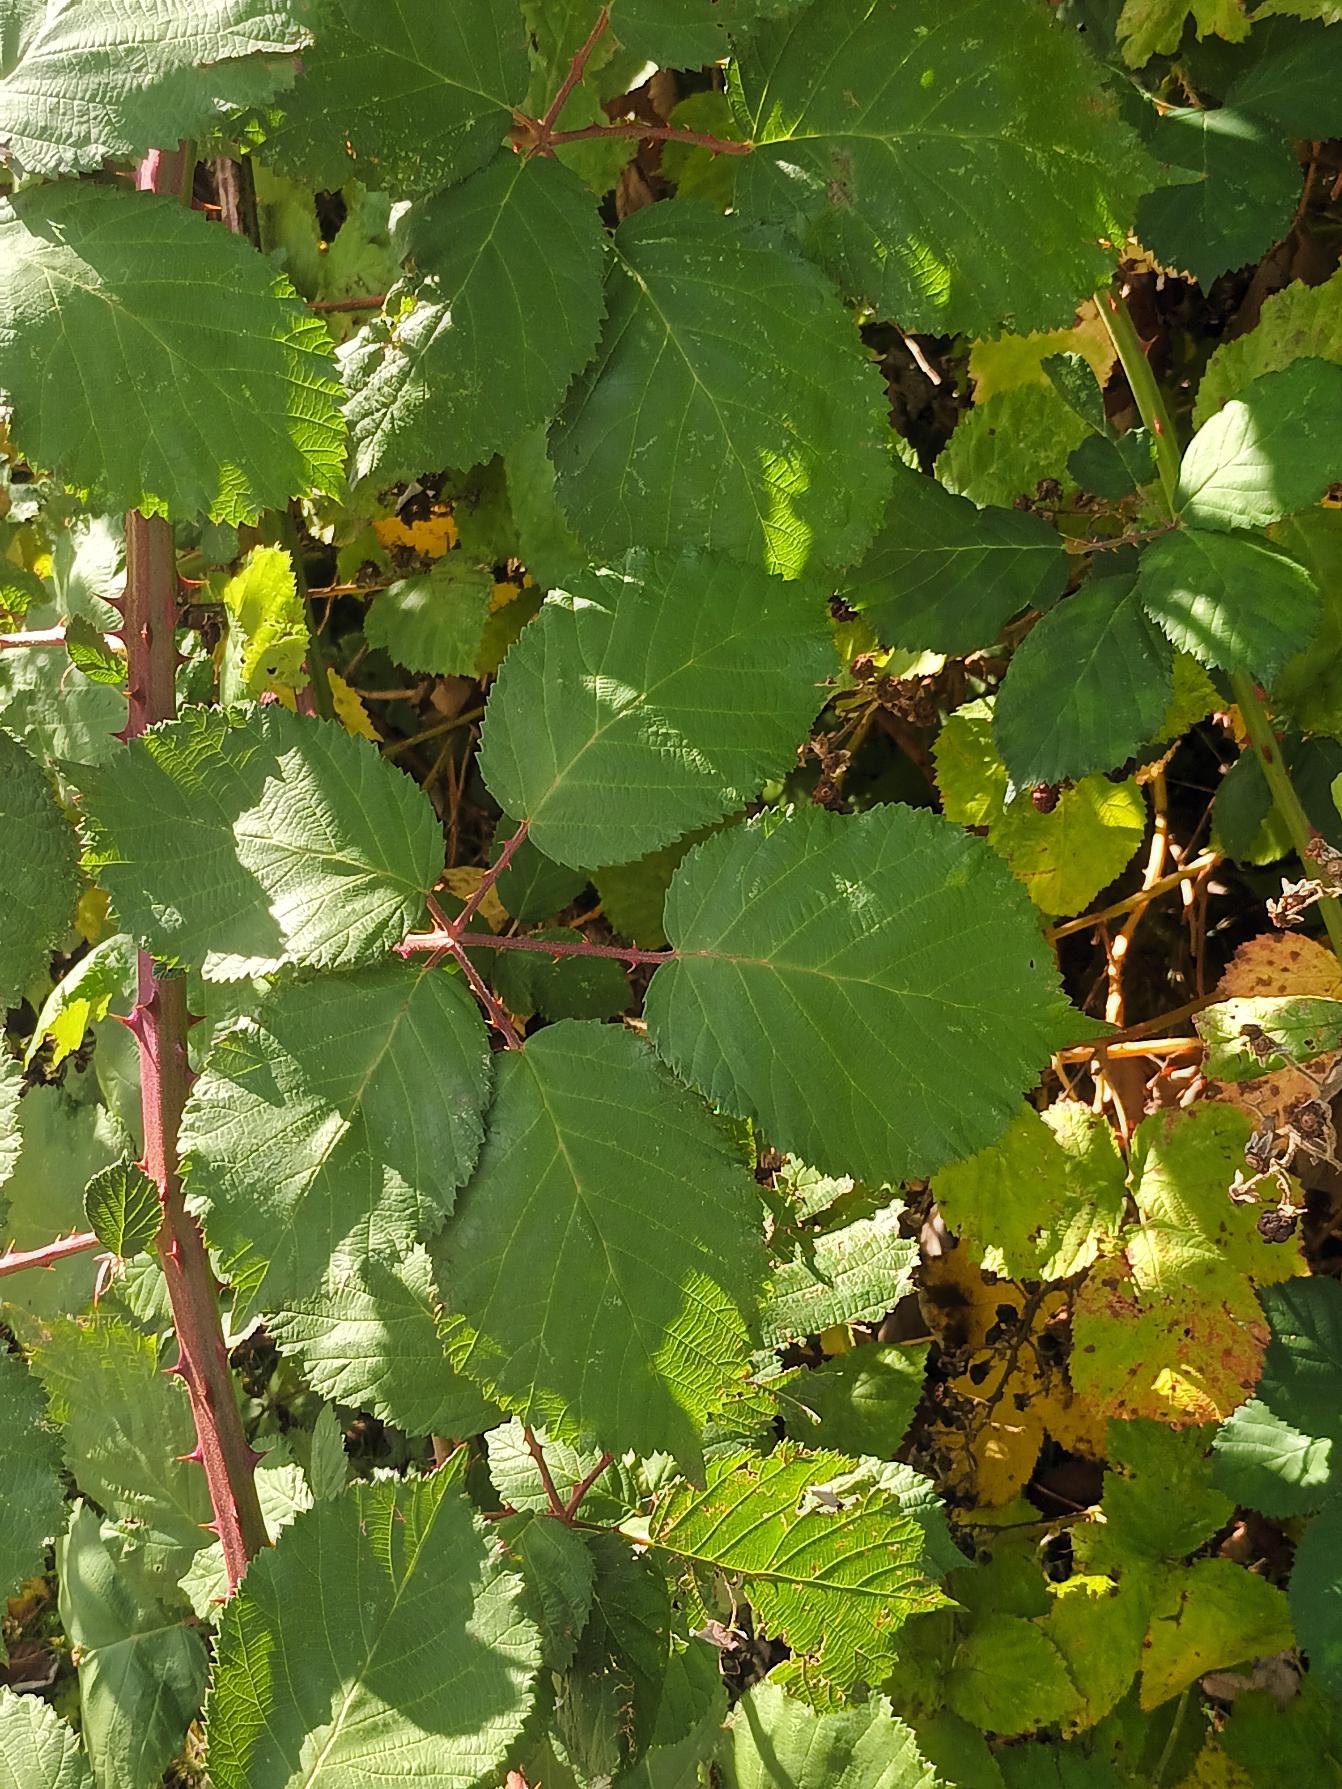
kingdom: Plantae
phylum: Tracheophyta
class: Magnoliopsida
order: Rosales
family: Rosaceae
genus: Rubus
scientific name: Rubus armeniacus
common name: Armensk brombær
